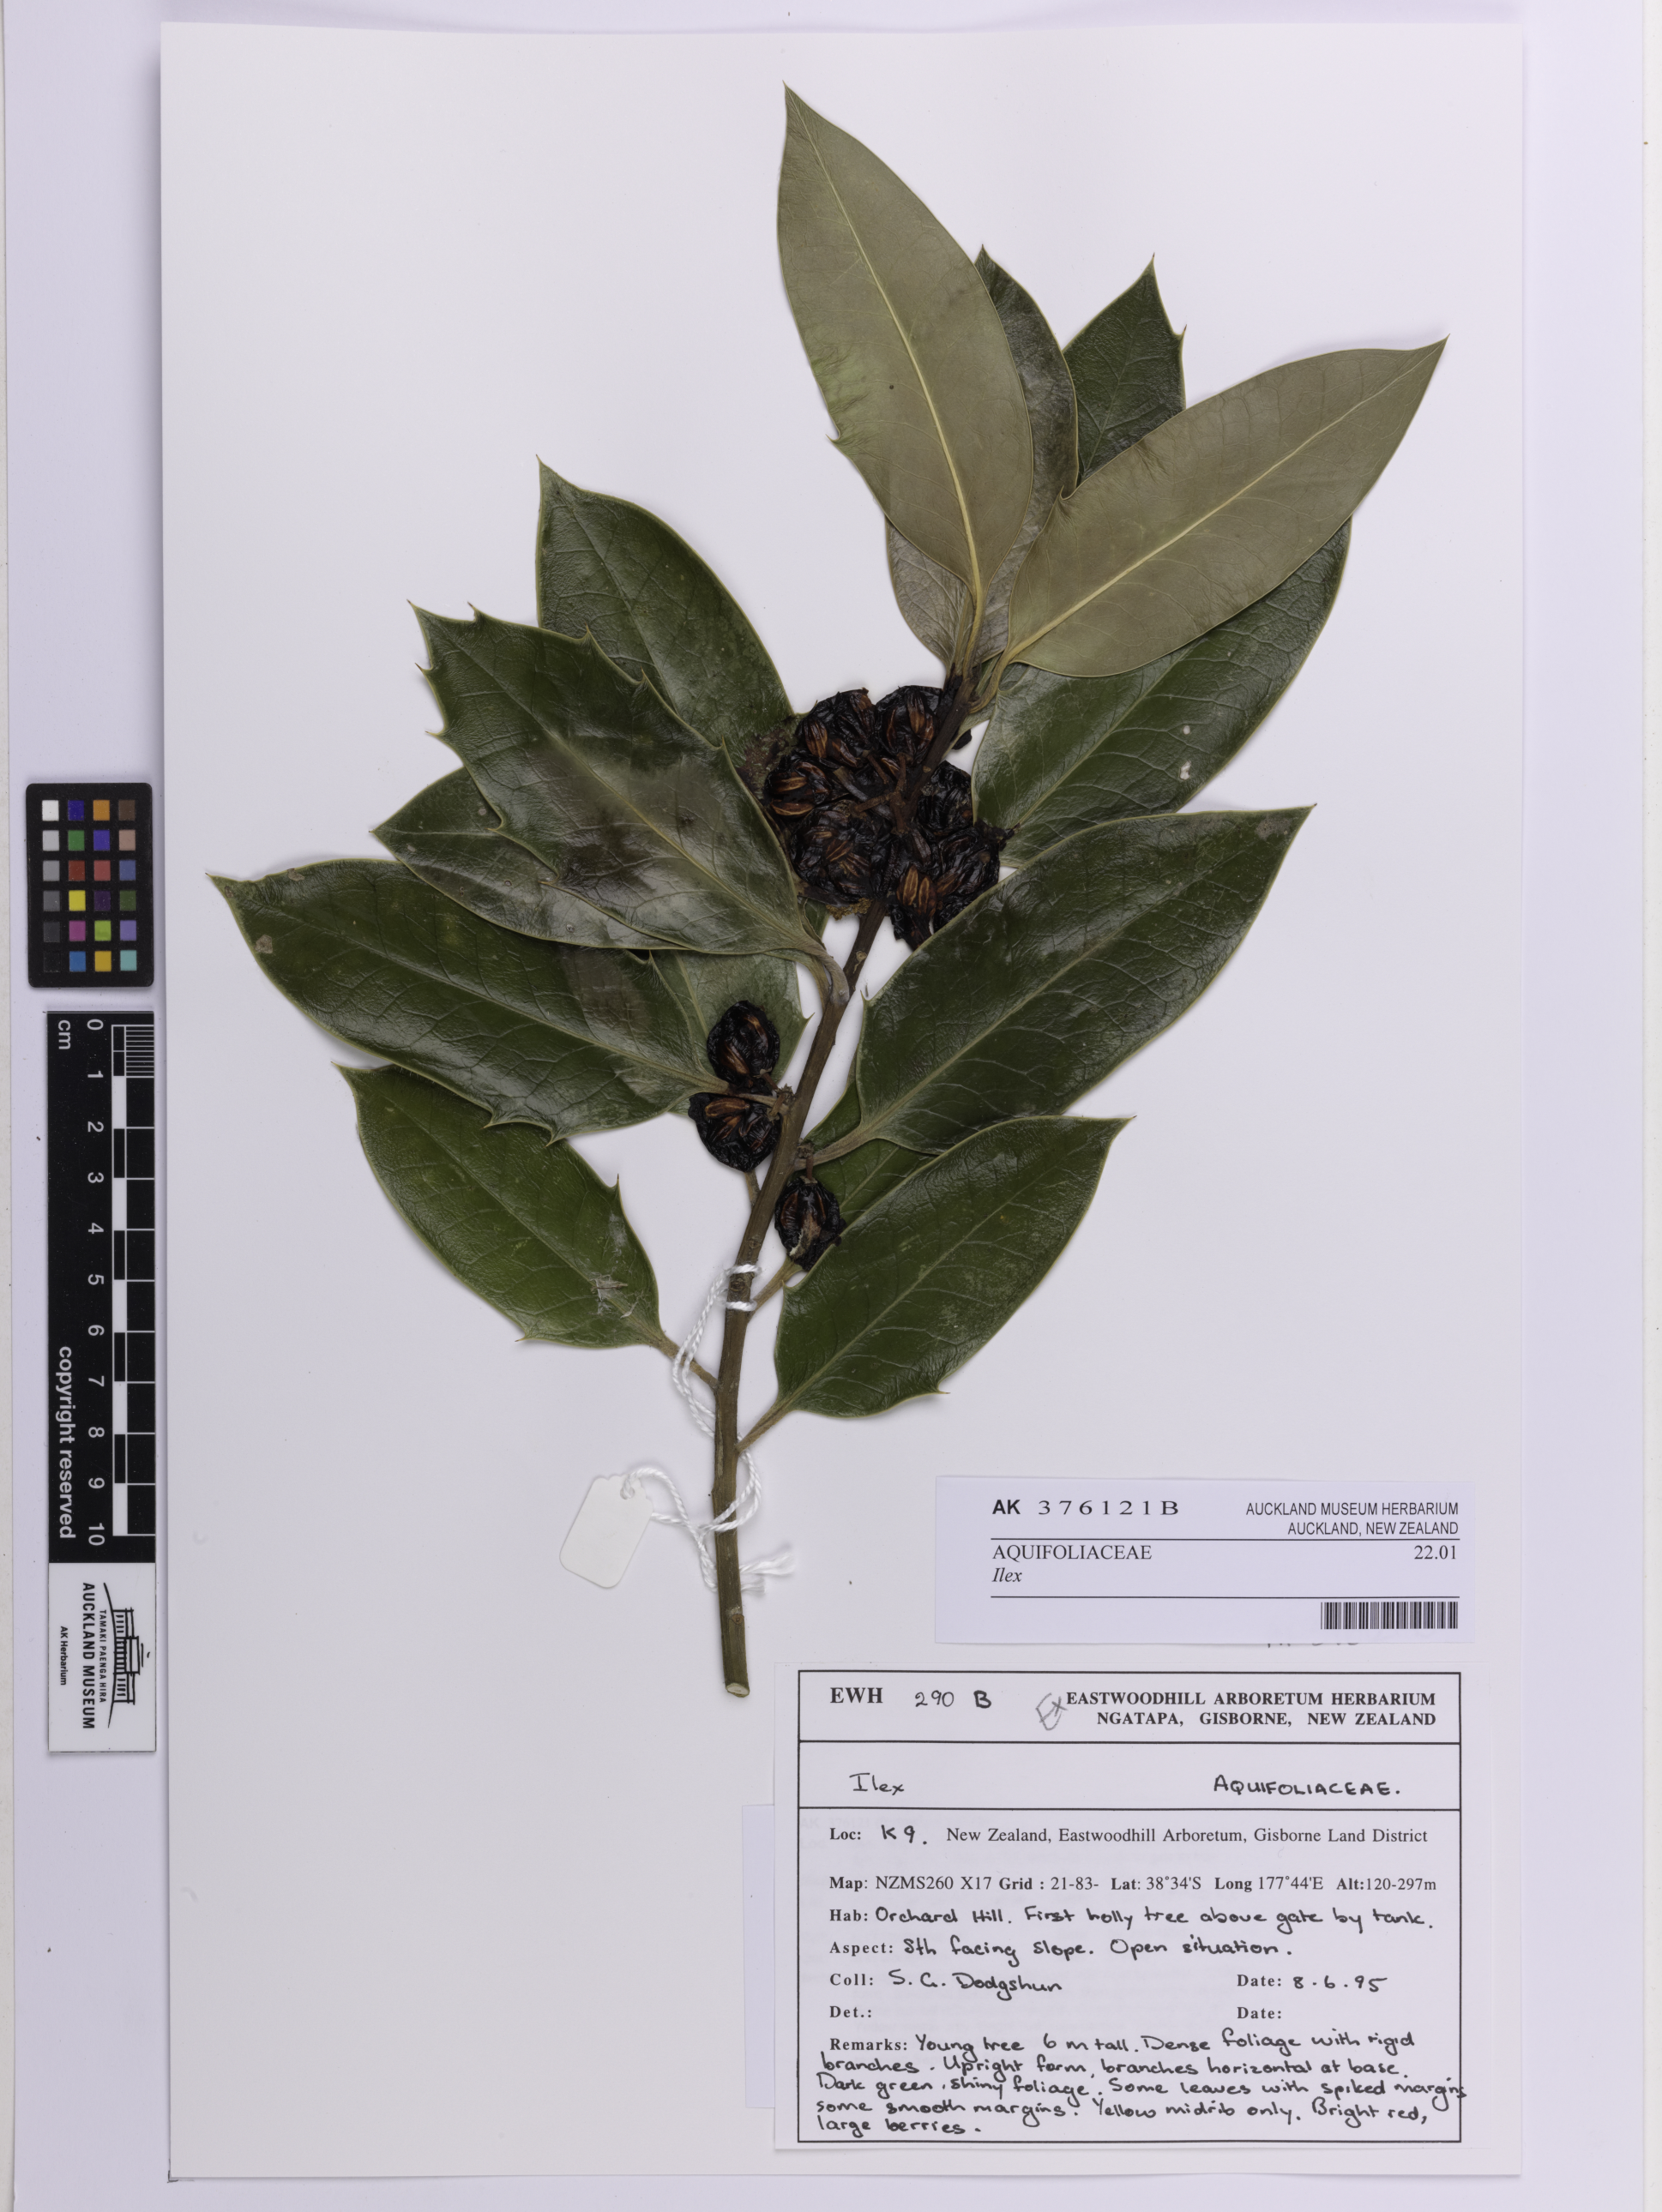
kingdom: Plantae
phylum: Tracheophyta
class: Magnoliopsida
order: Aquifoliales
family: Aquifoliaceae
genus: Ilex
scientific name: Ilex
